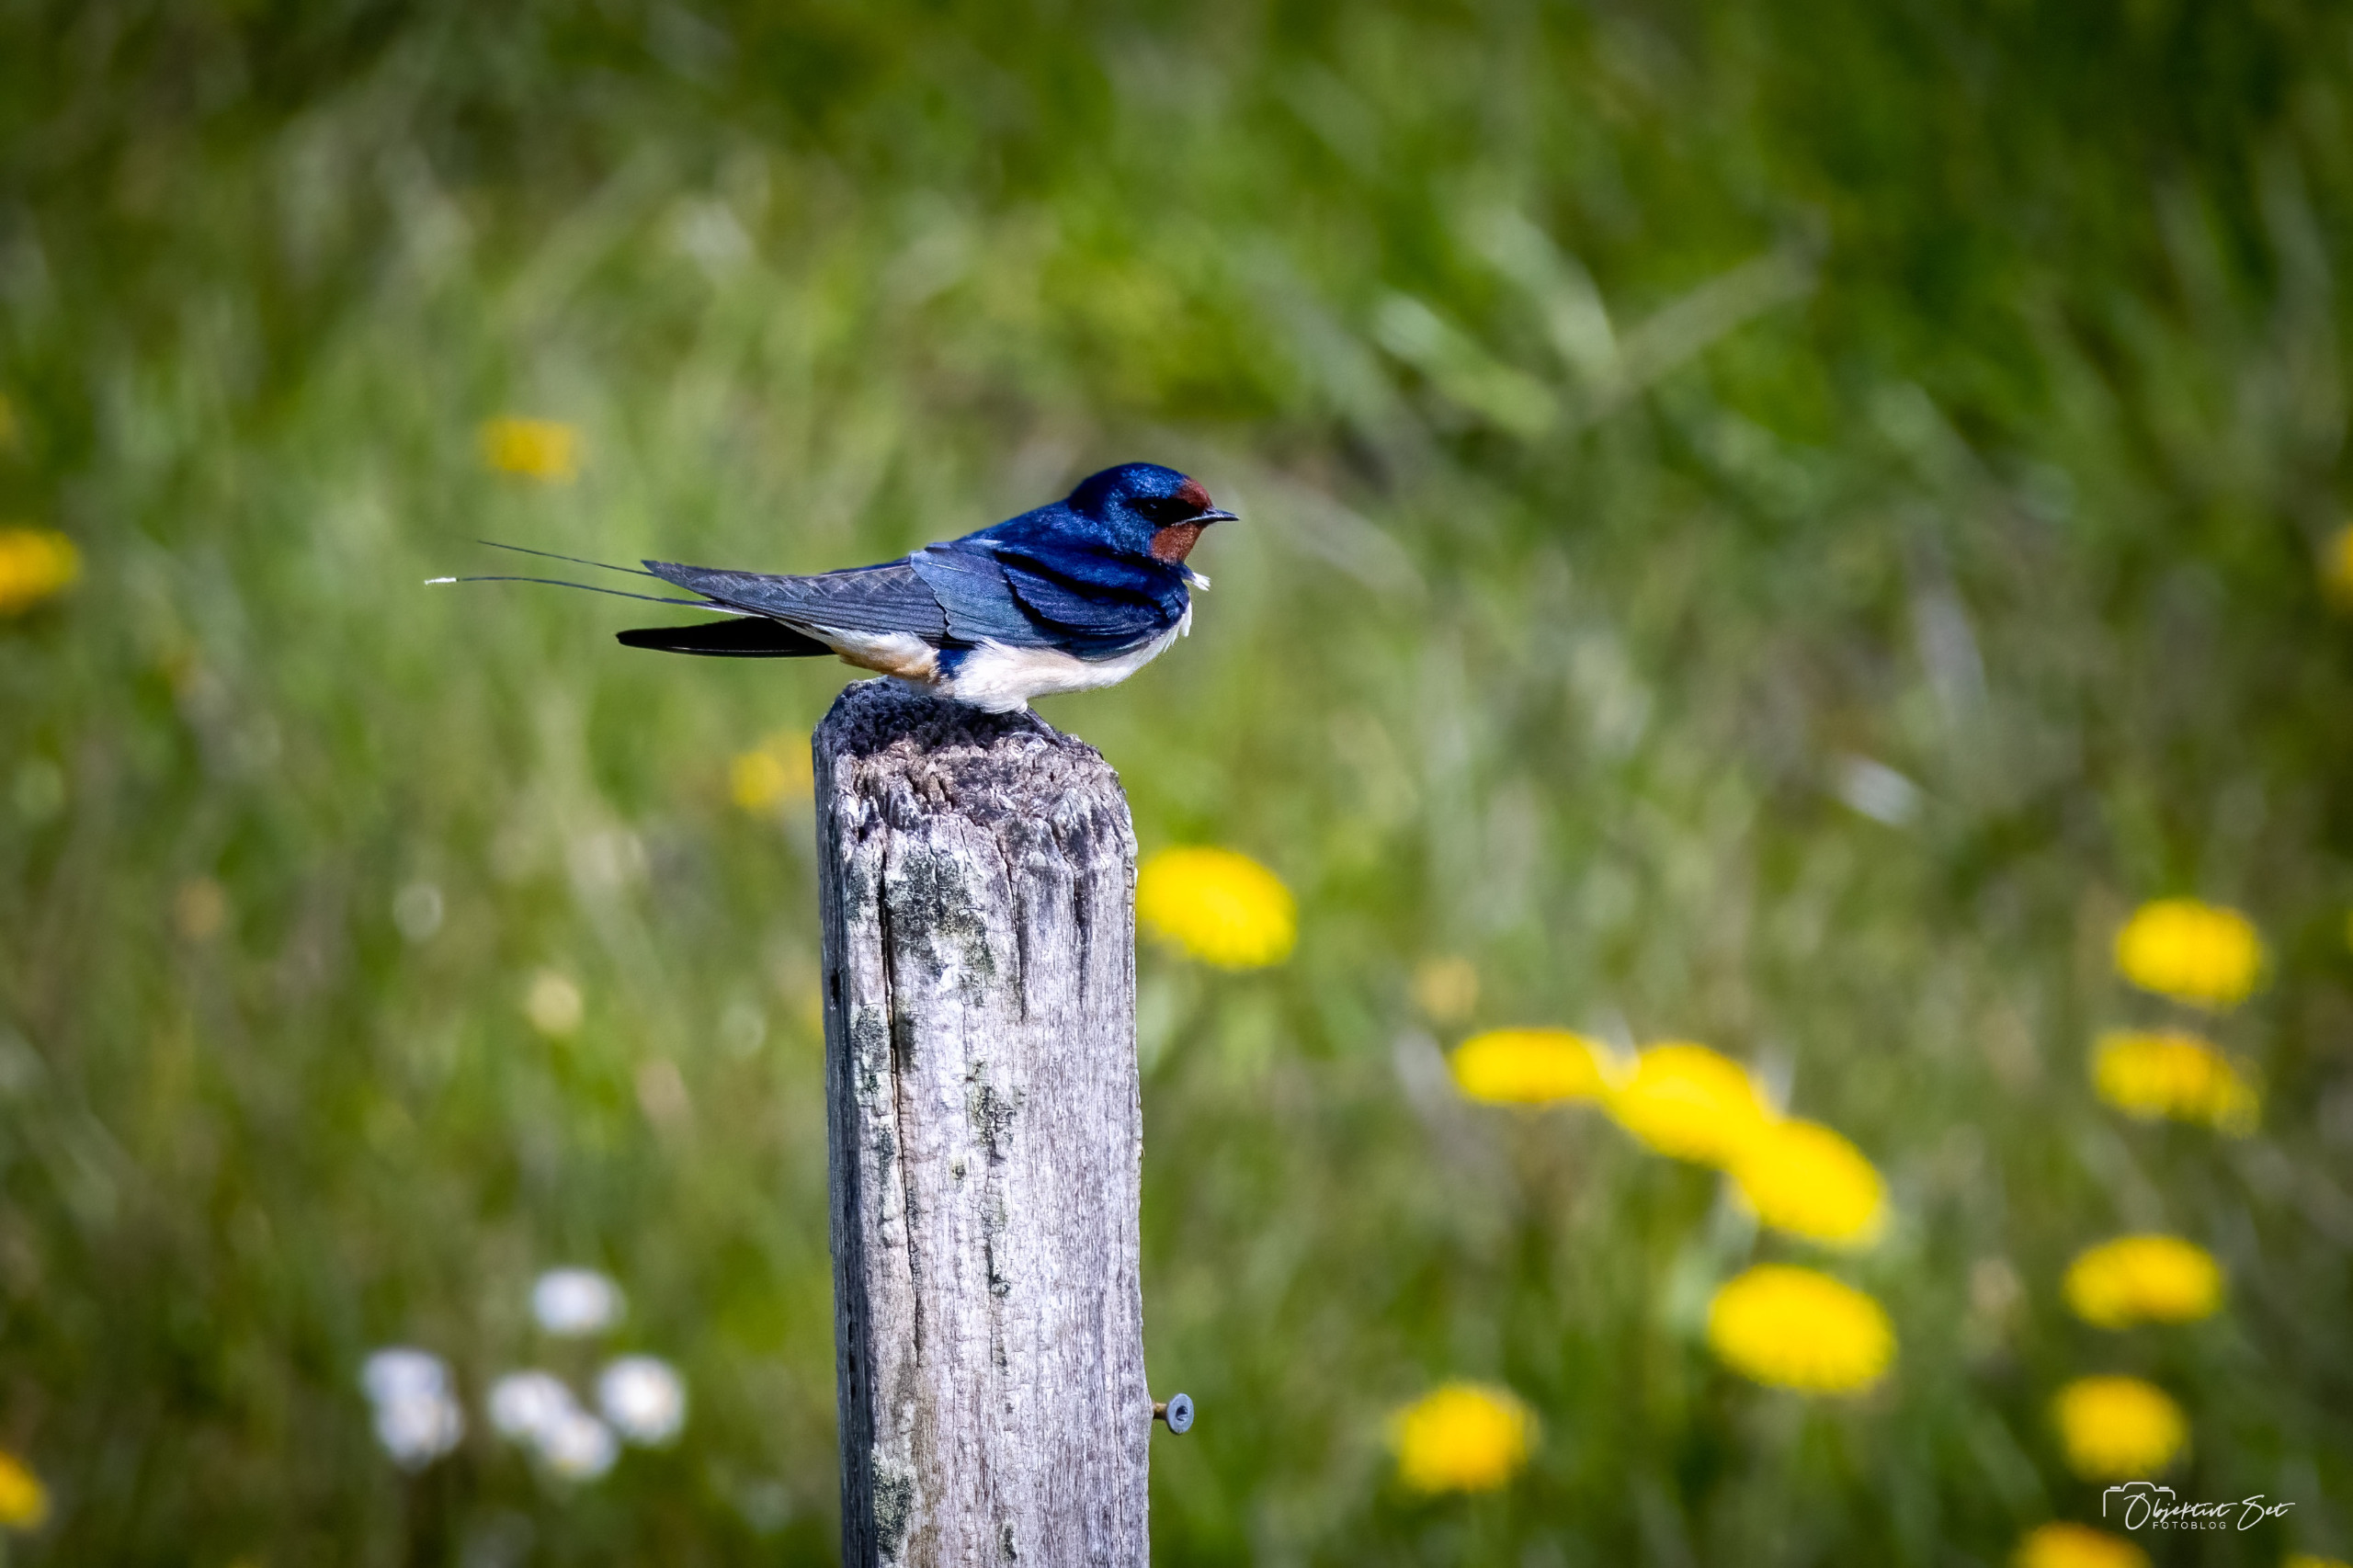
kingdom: Animalia
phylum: Chordata
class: Aves
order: Passeriformes
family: Hirundinidae
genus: Hirundo
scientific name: Hirundo rustica
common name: Landsvale
